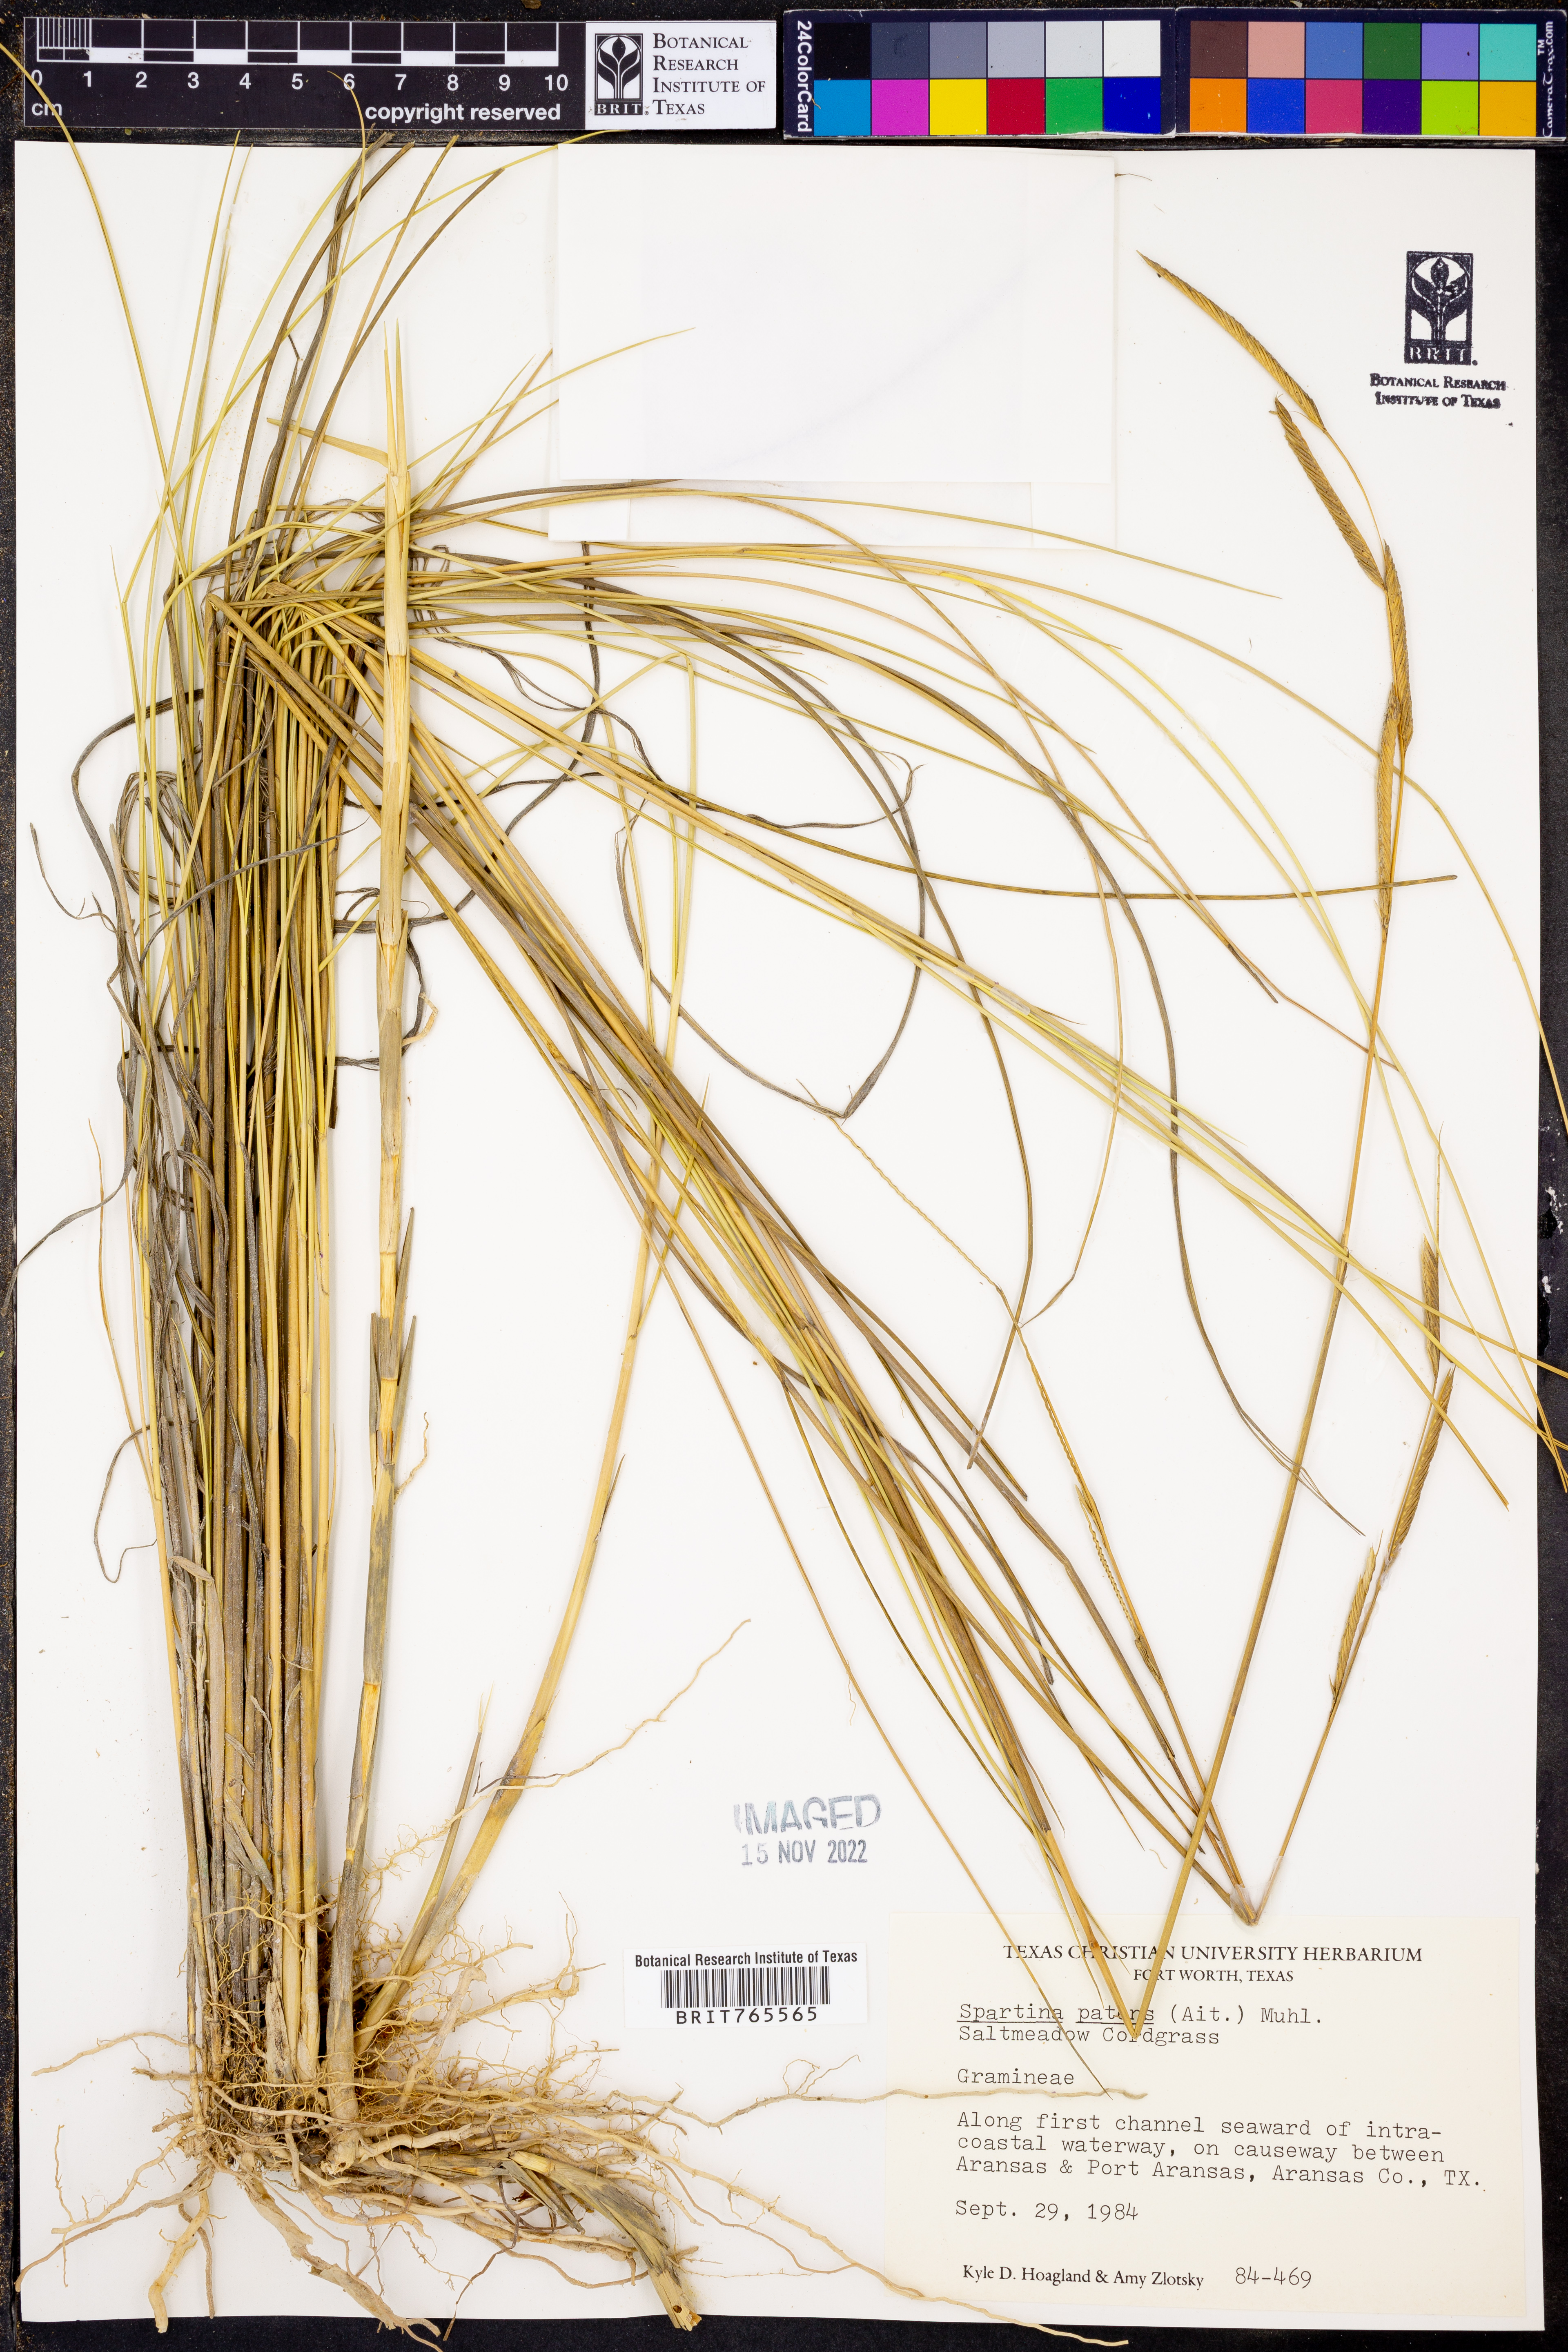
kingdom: Plantae
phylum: Tracheophyta
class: Liliopsida
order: Poales
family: Poaceae
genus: Sporobolus
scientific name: Sporobolus pumilus
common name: Highwater grass
